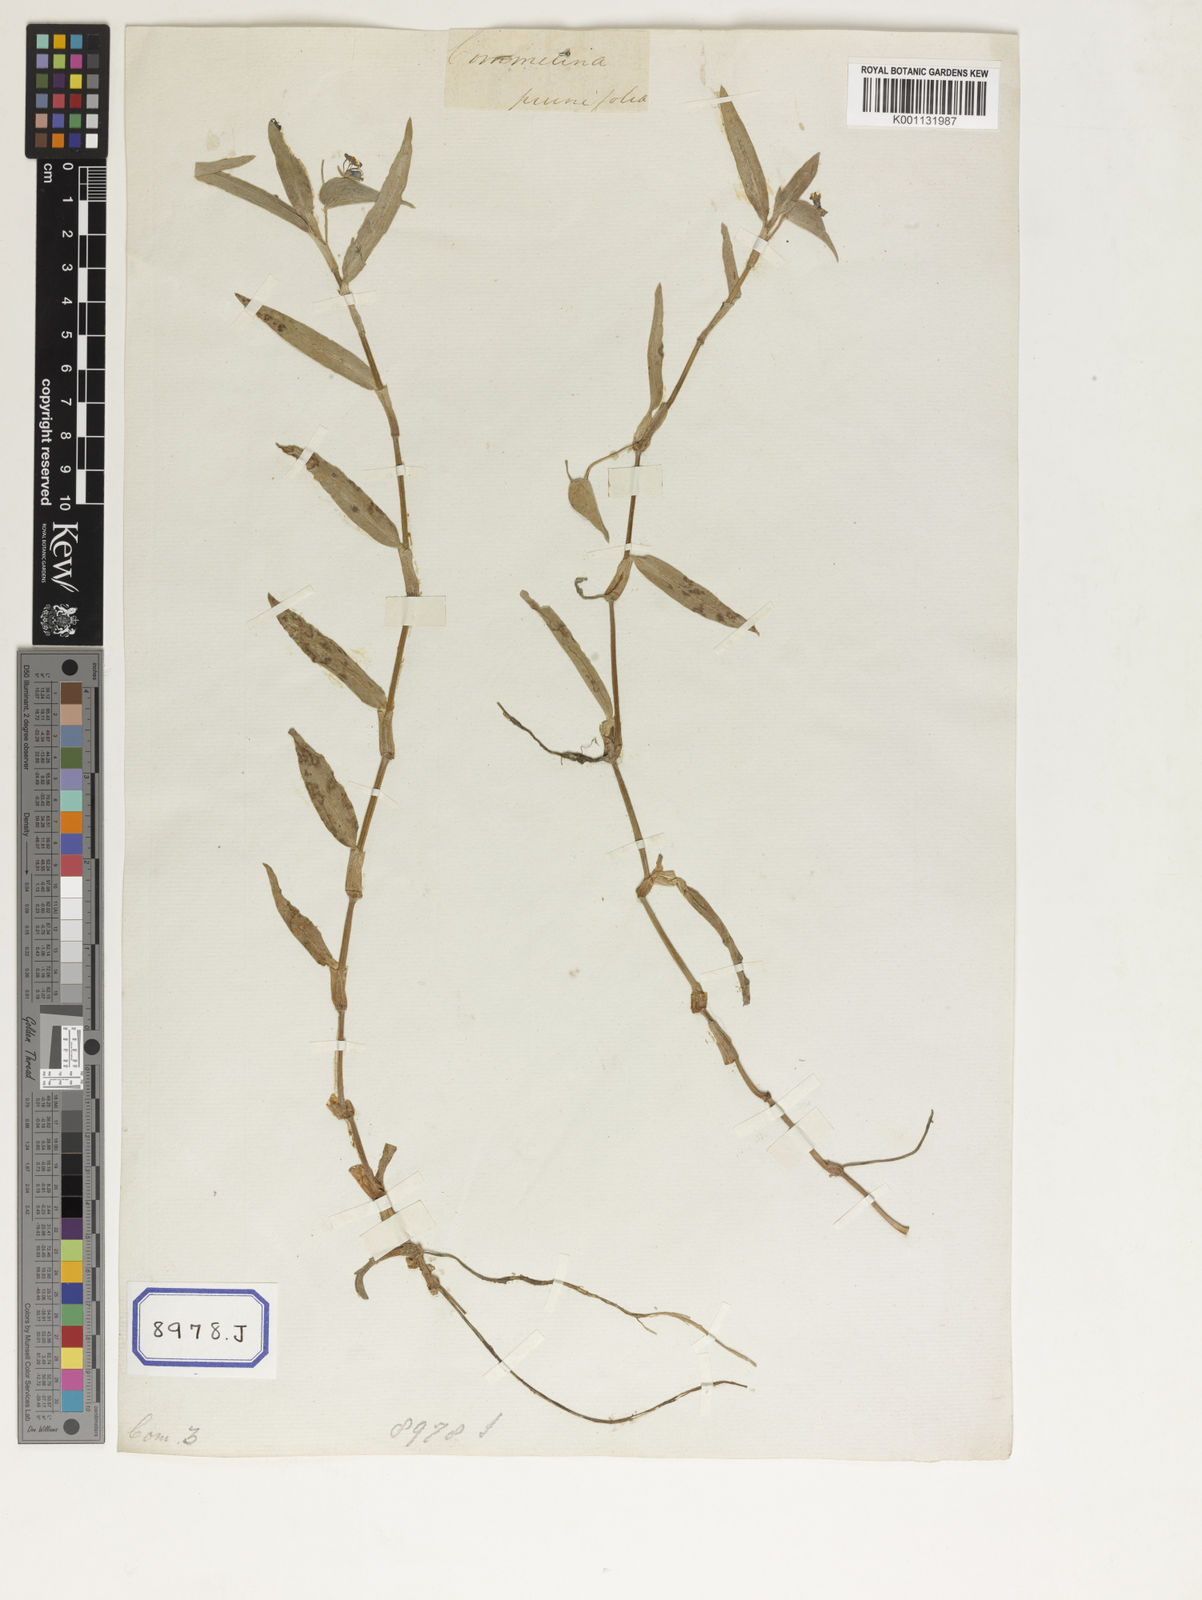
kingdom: Plantae
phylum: Tracheophyta
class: Liliopsida
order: Commelinales
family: Commelinaceae
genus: Commelina
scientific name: Commelina communis
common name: Asiatic dayflower
